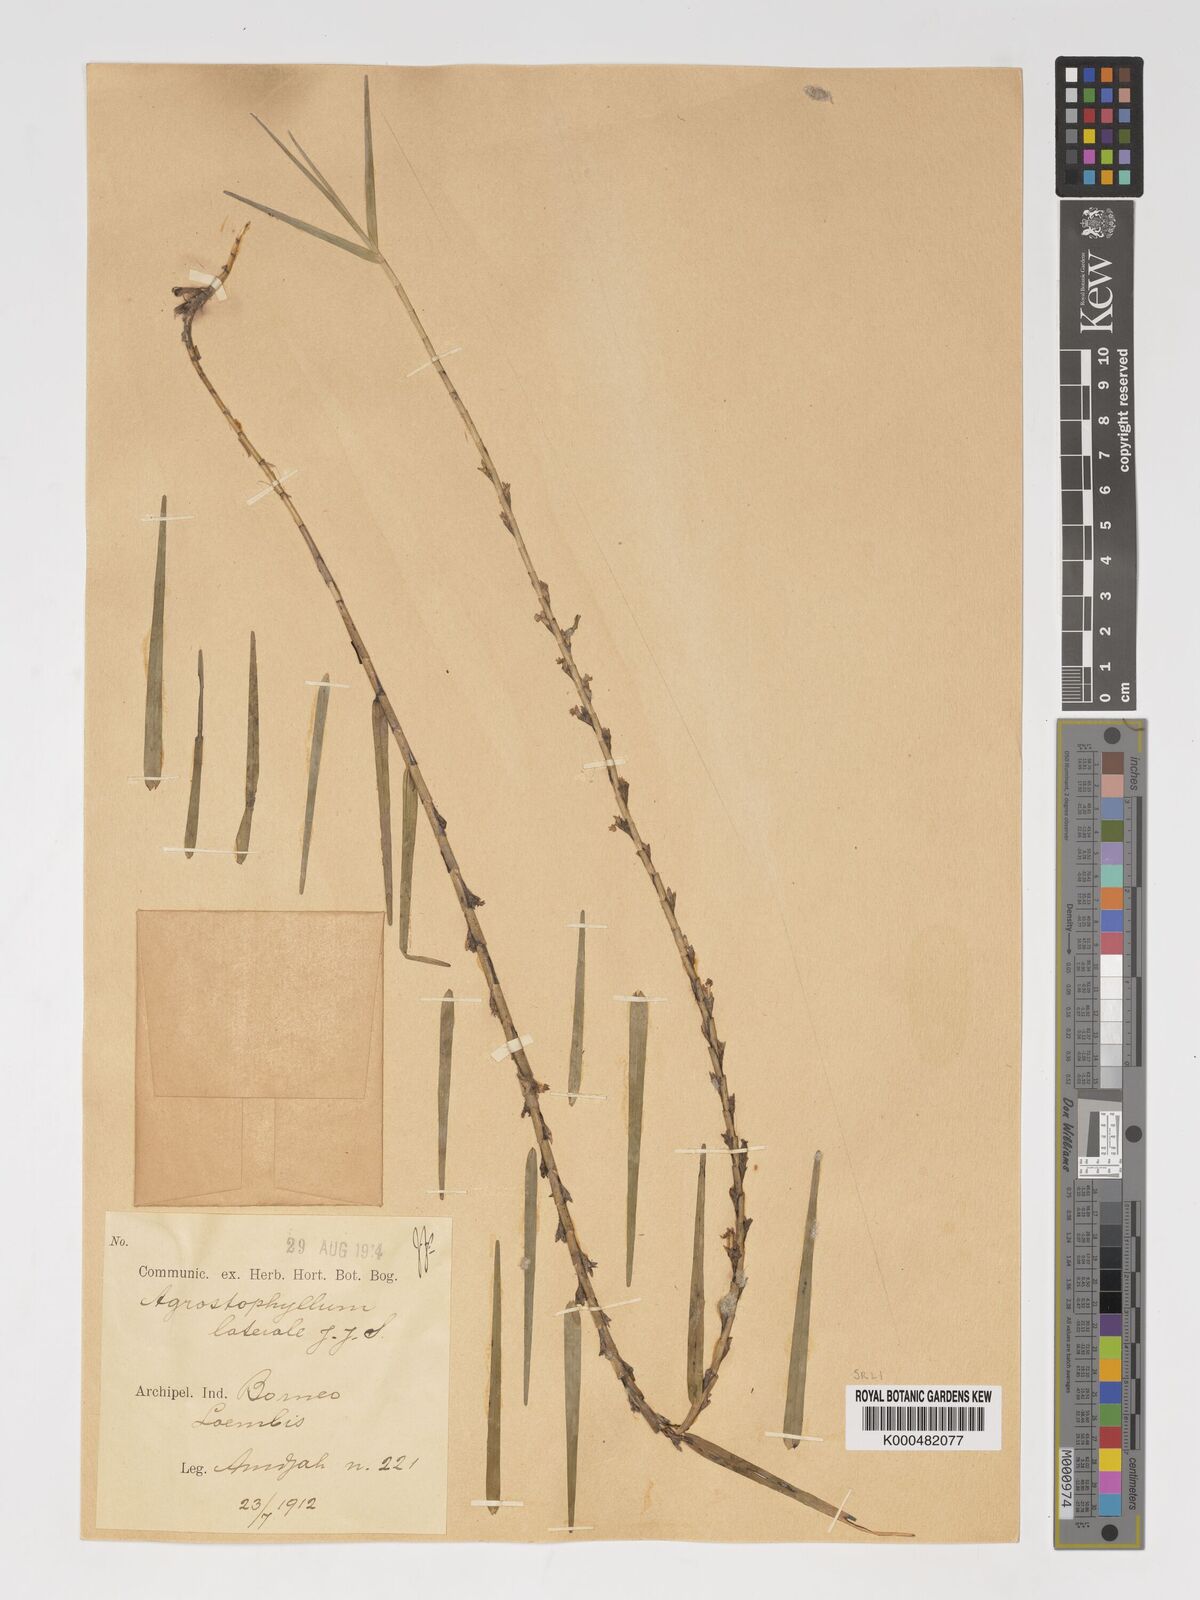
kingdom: Plantae
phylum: Tracheophyta
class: Liliopsida
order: Asparagales
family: Orchidaceae
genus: Agrostophyllum
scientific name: Agrostophyllum laterale
